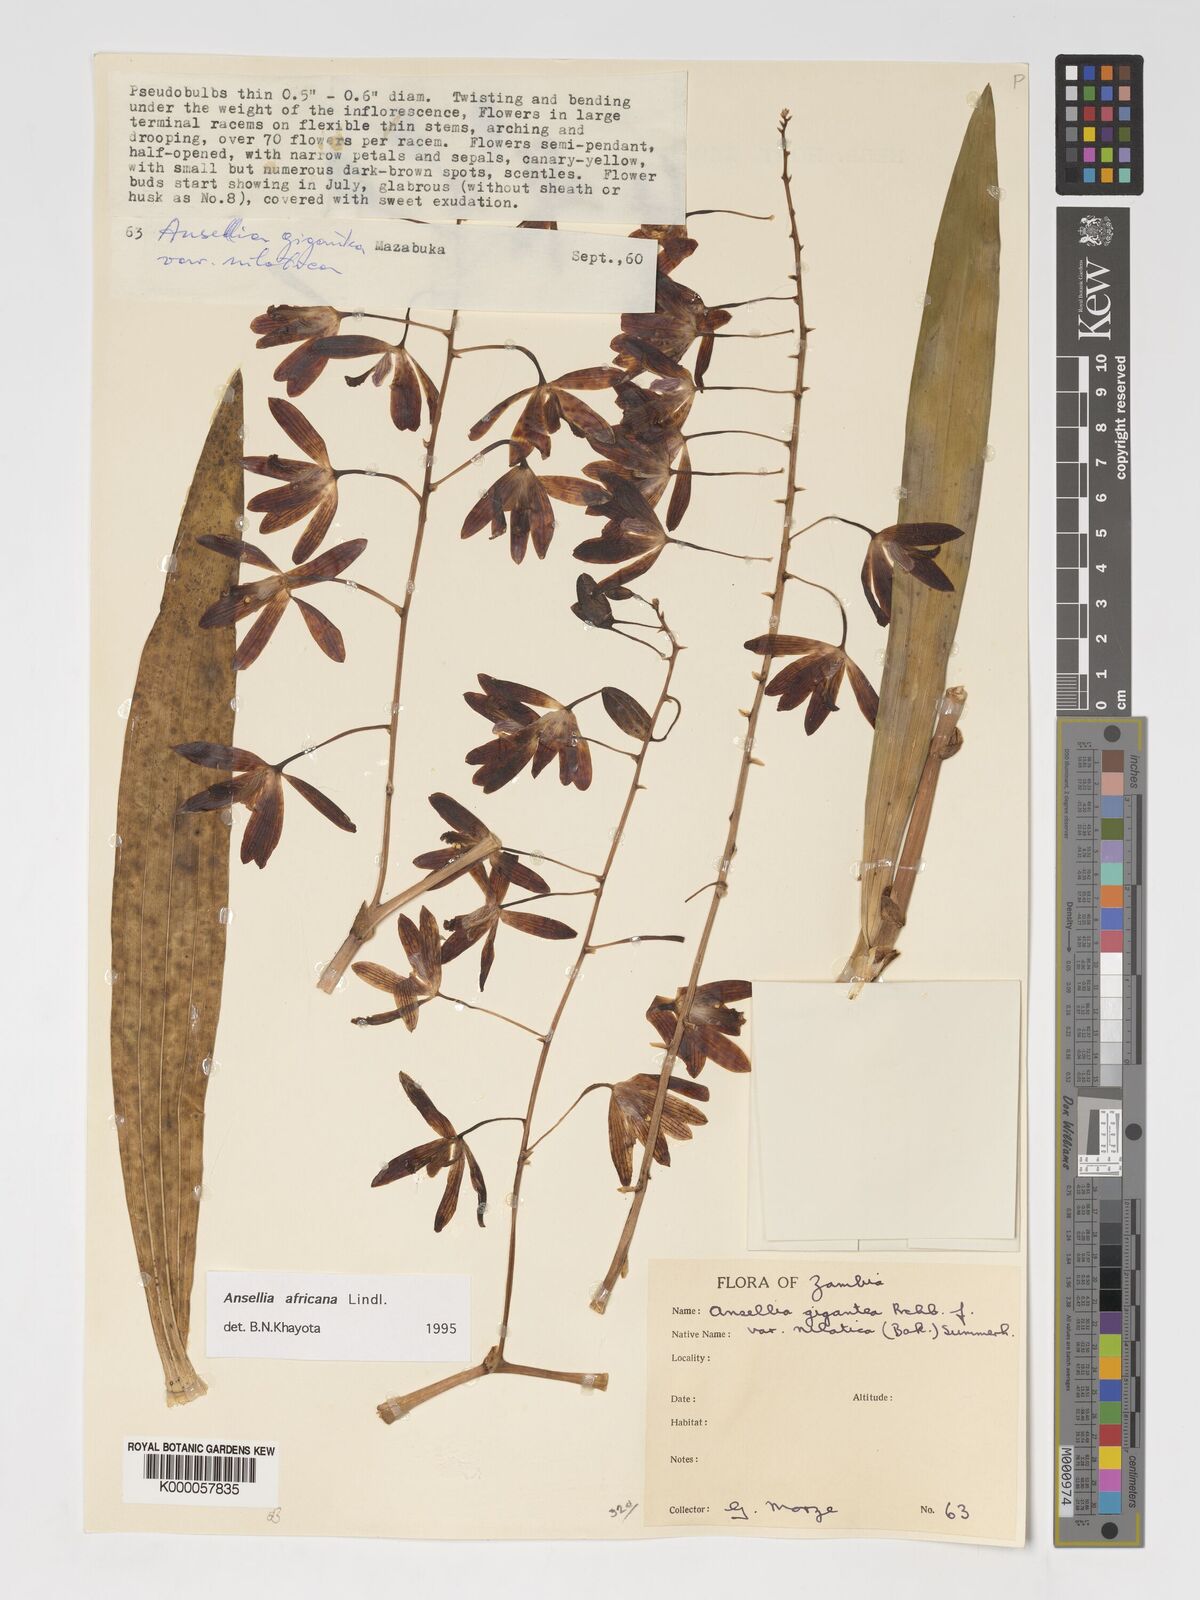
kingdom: Plantae
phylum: Tracheophyta
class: Liliopsida
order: Asparagales
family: Orchidaceae
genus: Ansellia
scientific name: Ansellia africana
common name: African ansellia
